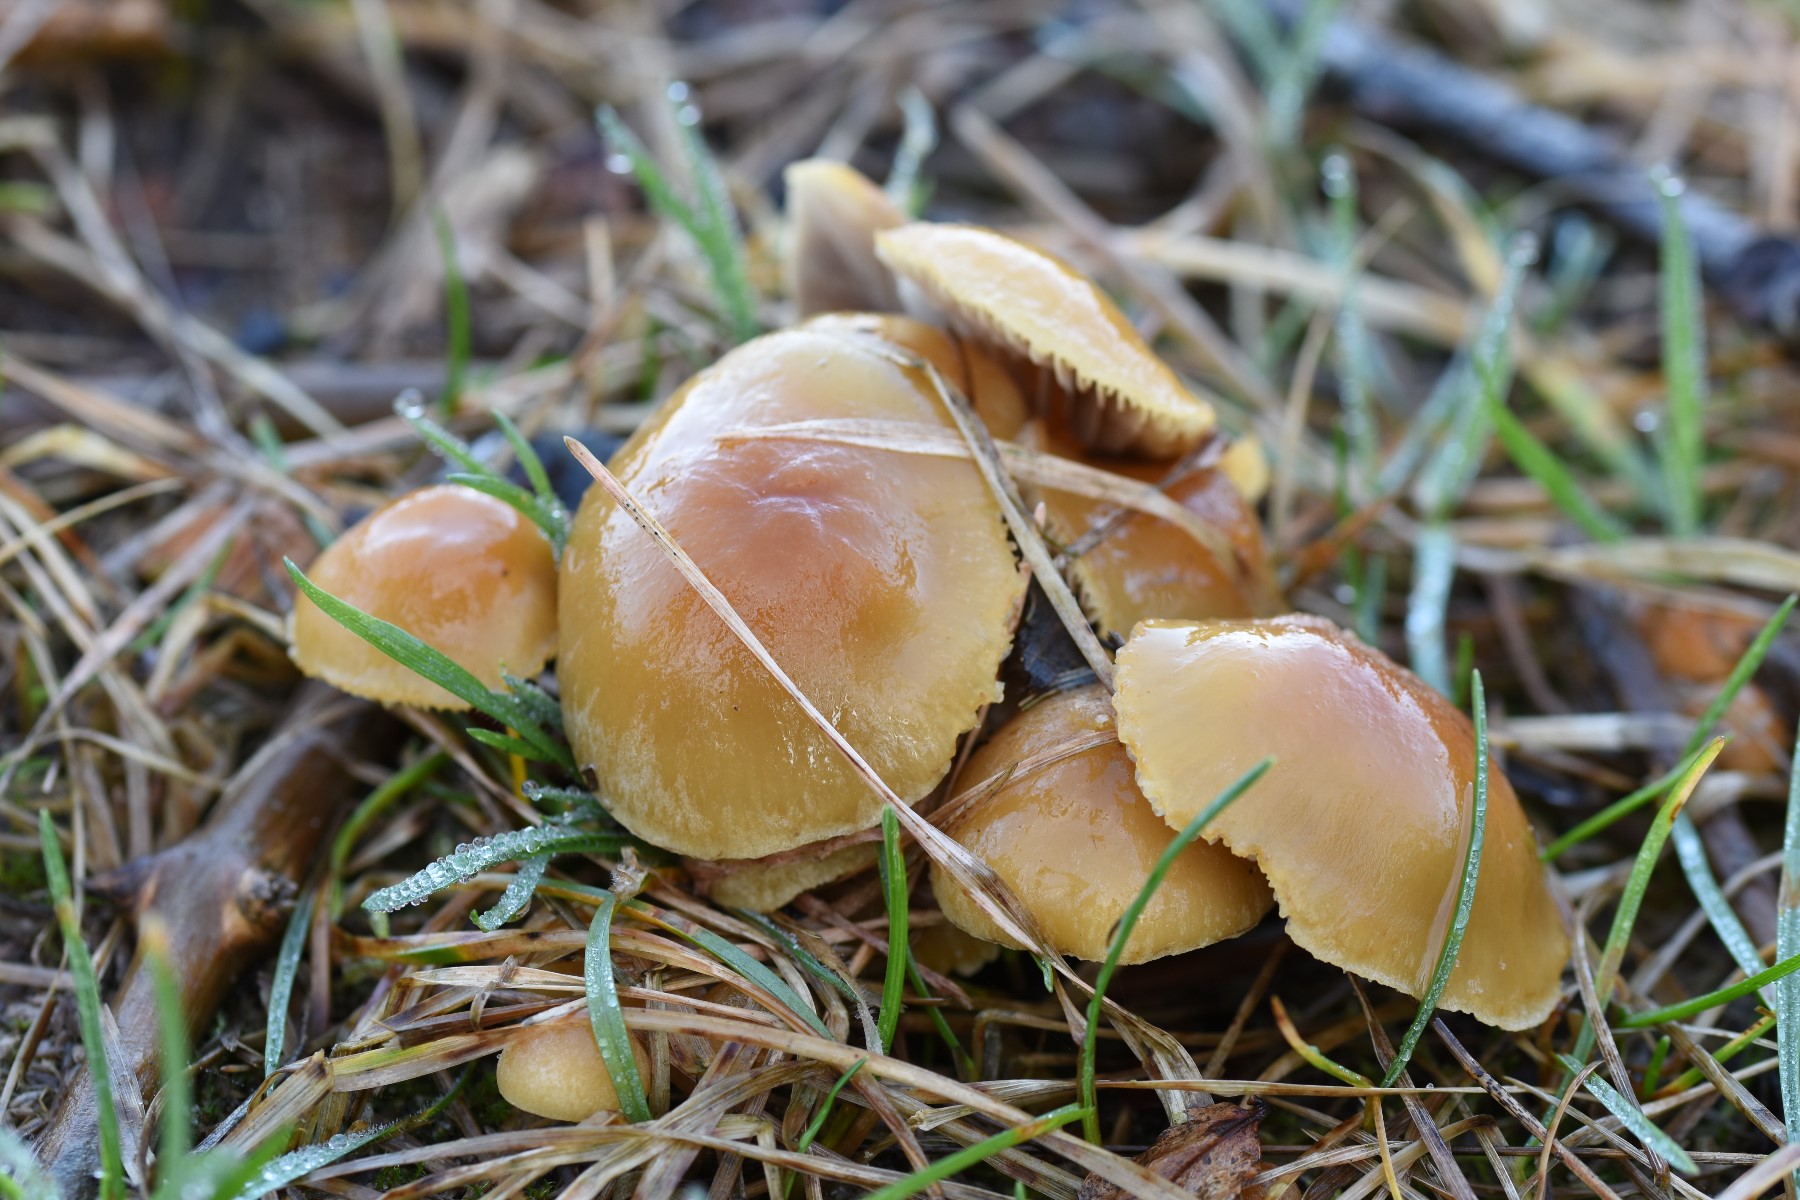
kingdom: Fungi
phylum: Basidiomycota
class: Agaricomycetes
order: Agaricales
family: Strophariaceae
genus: Hypholoma
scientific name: Hypholoma capnoides
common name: gran-svovlhat
